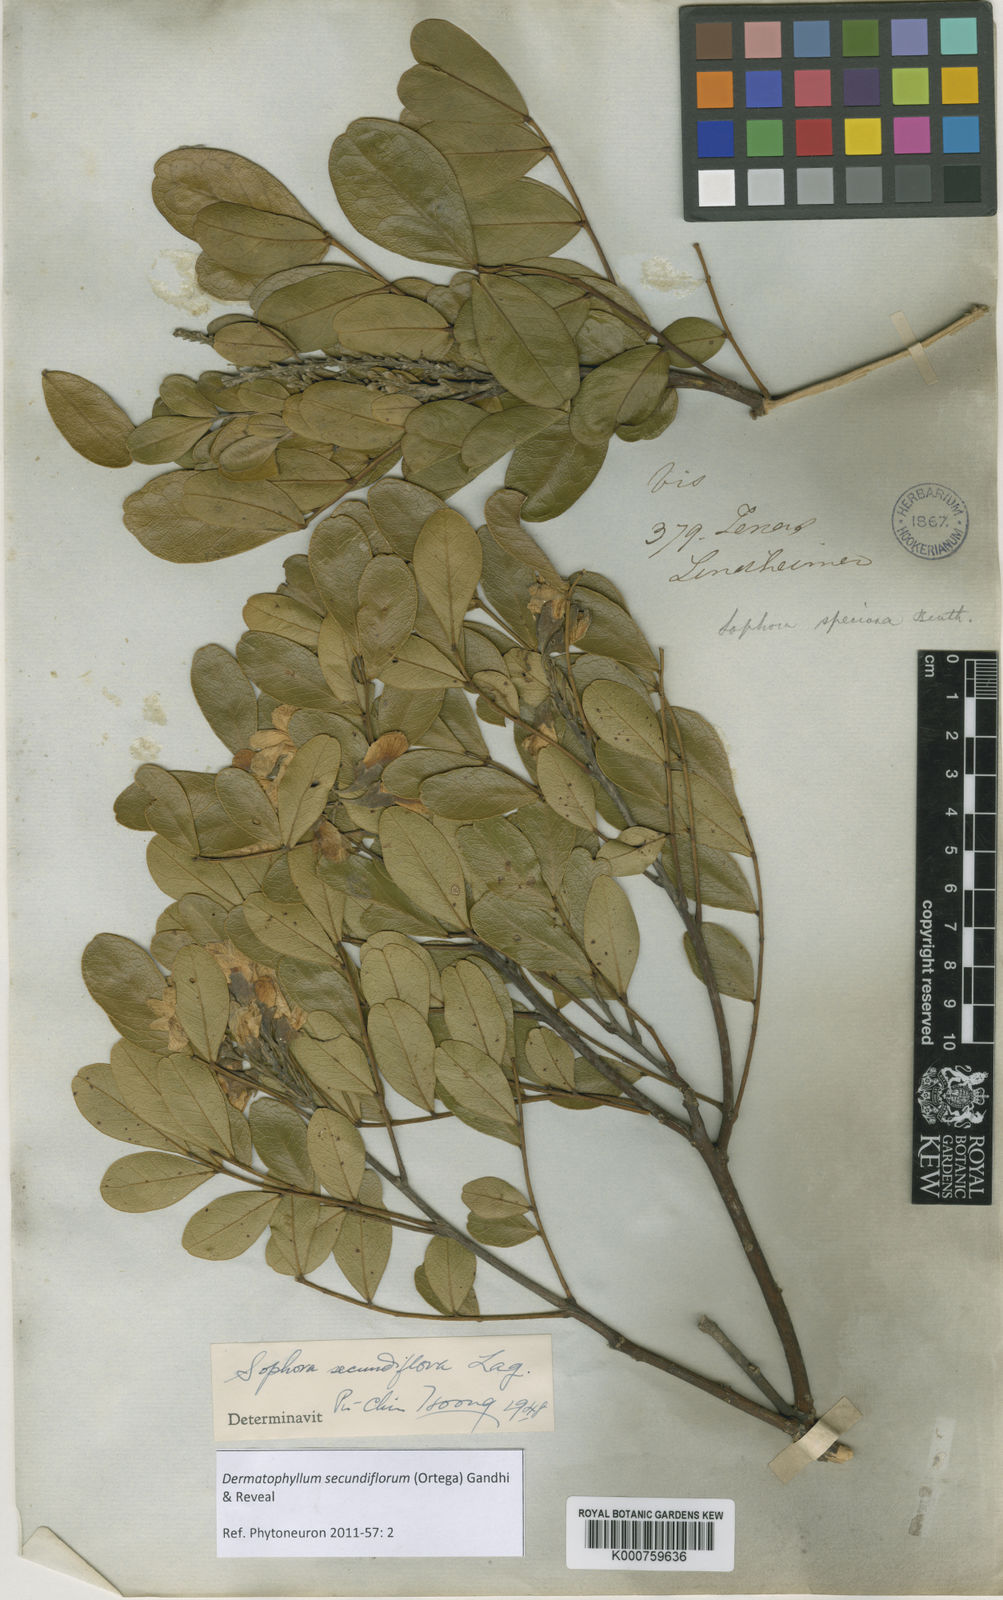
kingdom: Plantae
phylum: Tracheophyta
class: Magnoliopsida
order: Fabales
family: Fabaceae
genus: Dermatophyllum
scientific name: Dermatophyllum secundiflorum
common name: Texas-mountain-laurel
